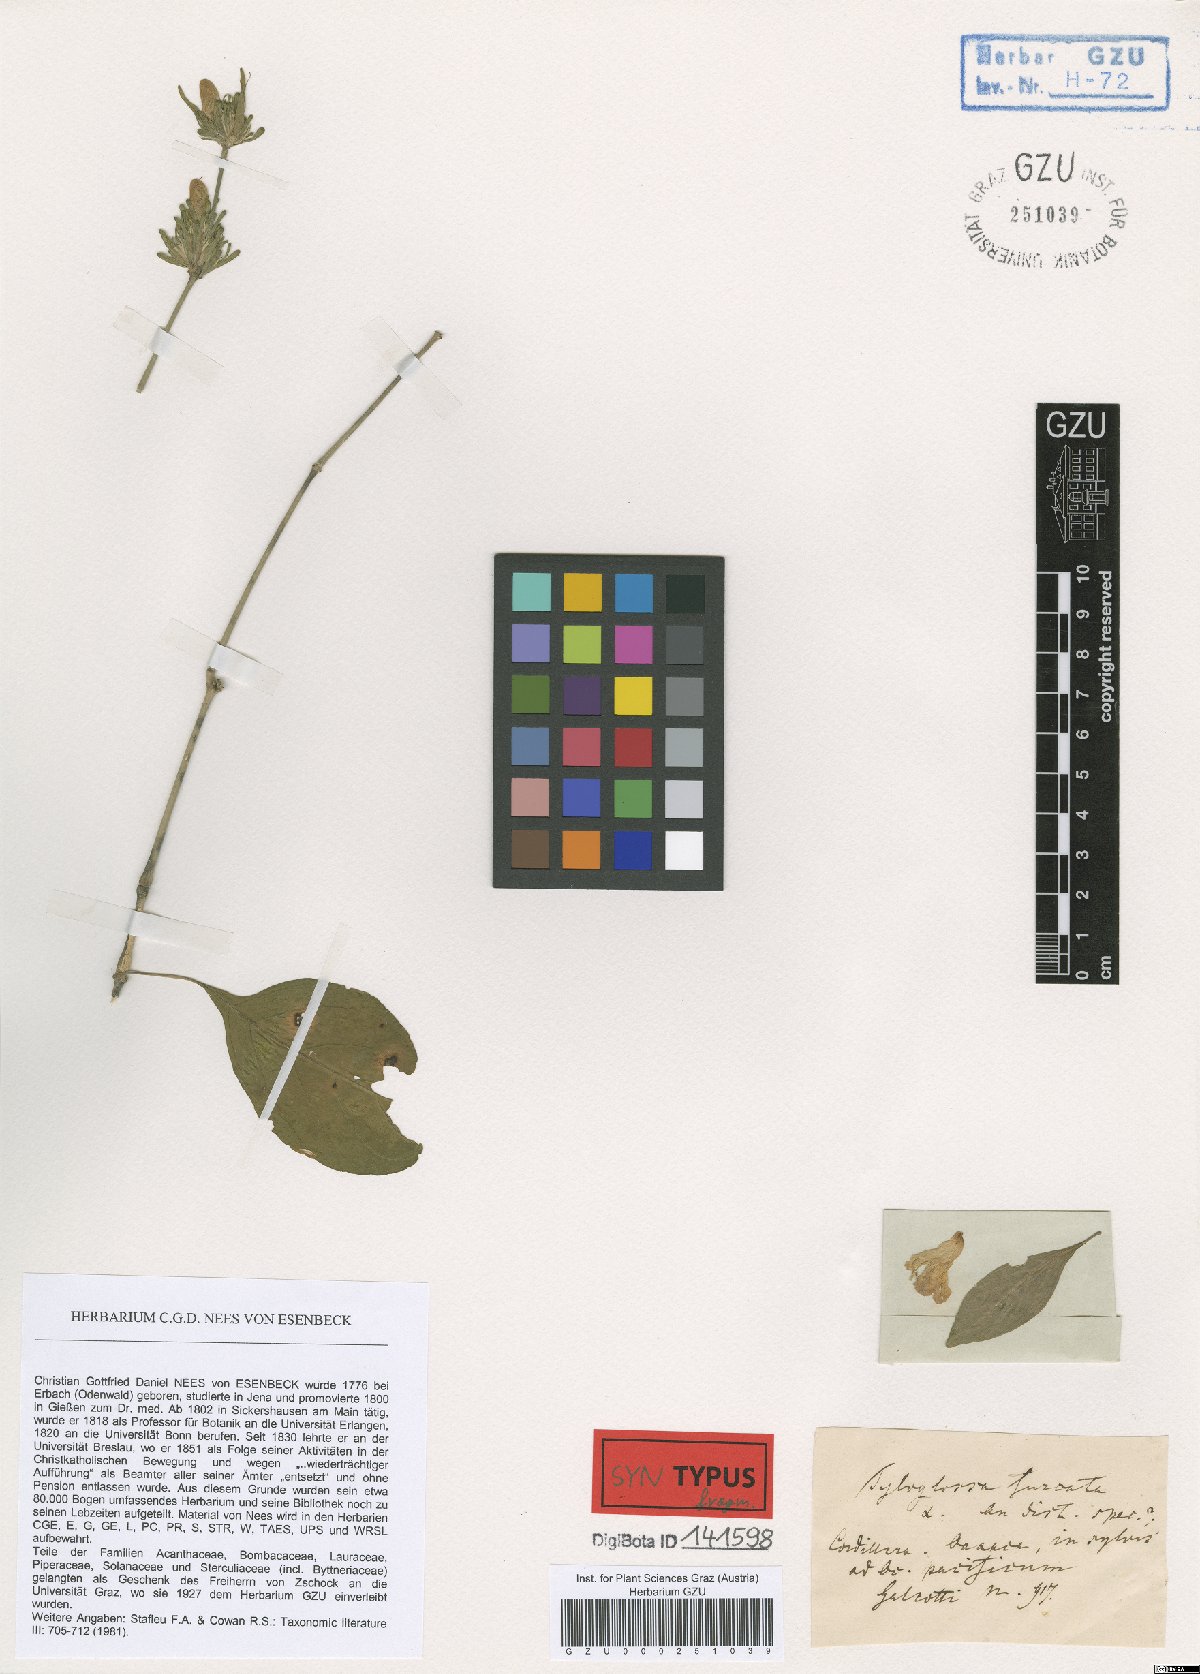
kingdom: Plantae
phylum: Tracheophyta
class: Magnoliopsida
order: Lamiales
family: Acanthaceae
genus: Justicia
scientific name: Justicia furcata
